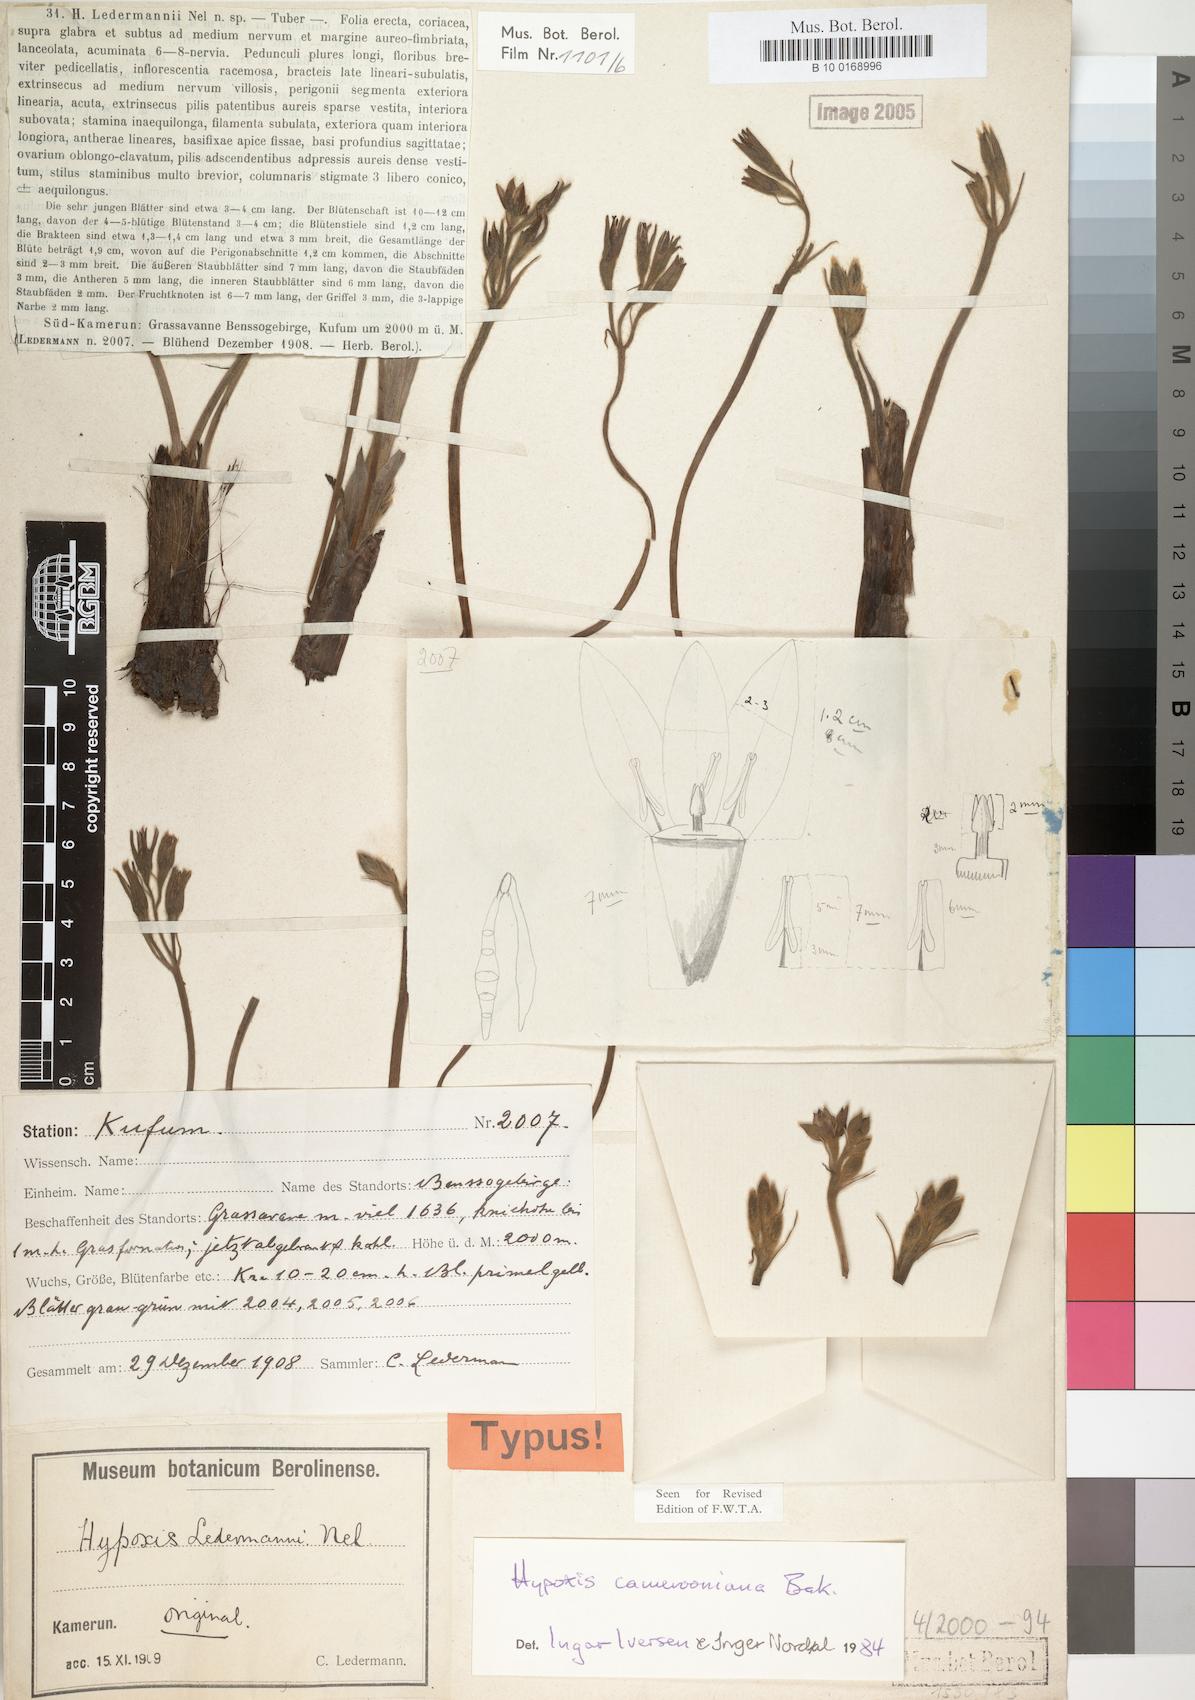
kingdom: Plantae
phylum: Tracheophyta
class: Liliopsida
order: Asparagales
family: Hypoxidaceae
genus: Hypoxis
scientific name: Hypoxis camerooniana
